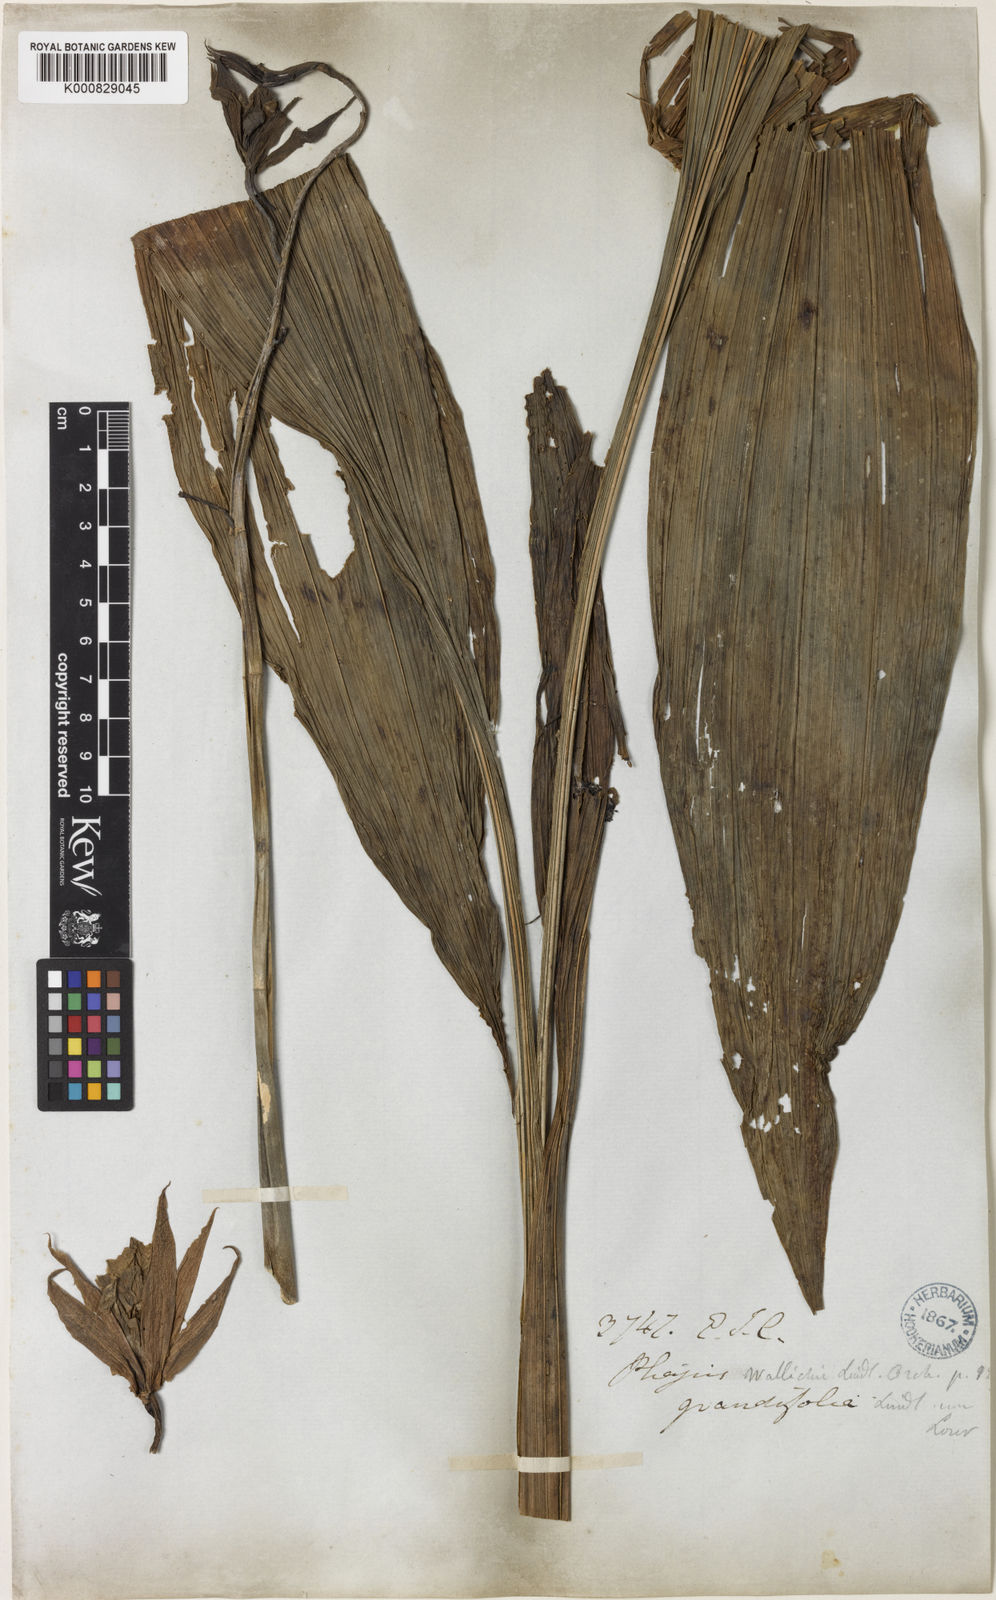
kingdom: Plantae
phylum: Tracheophyta
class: Liliopsida
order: Asparagales
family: Orchidaceae
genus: Calanthe
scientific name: Calanthe wallichii
